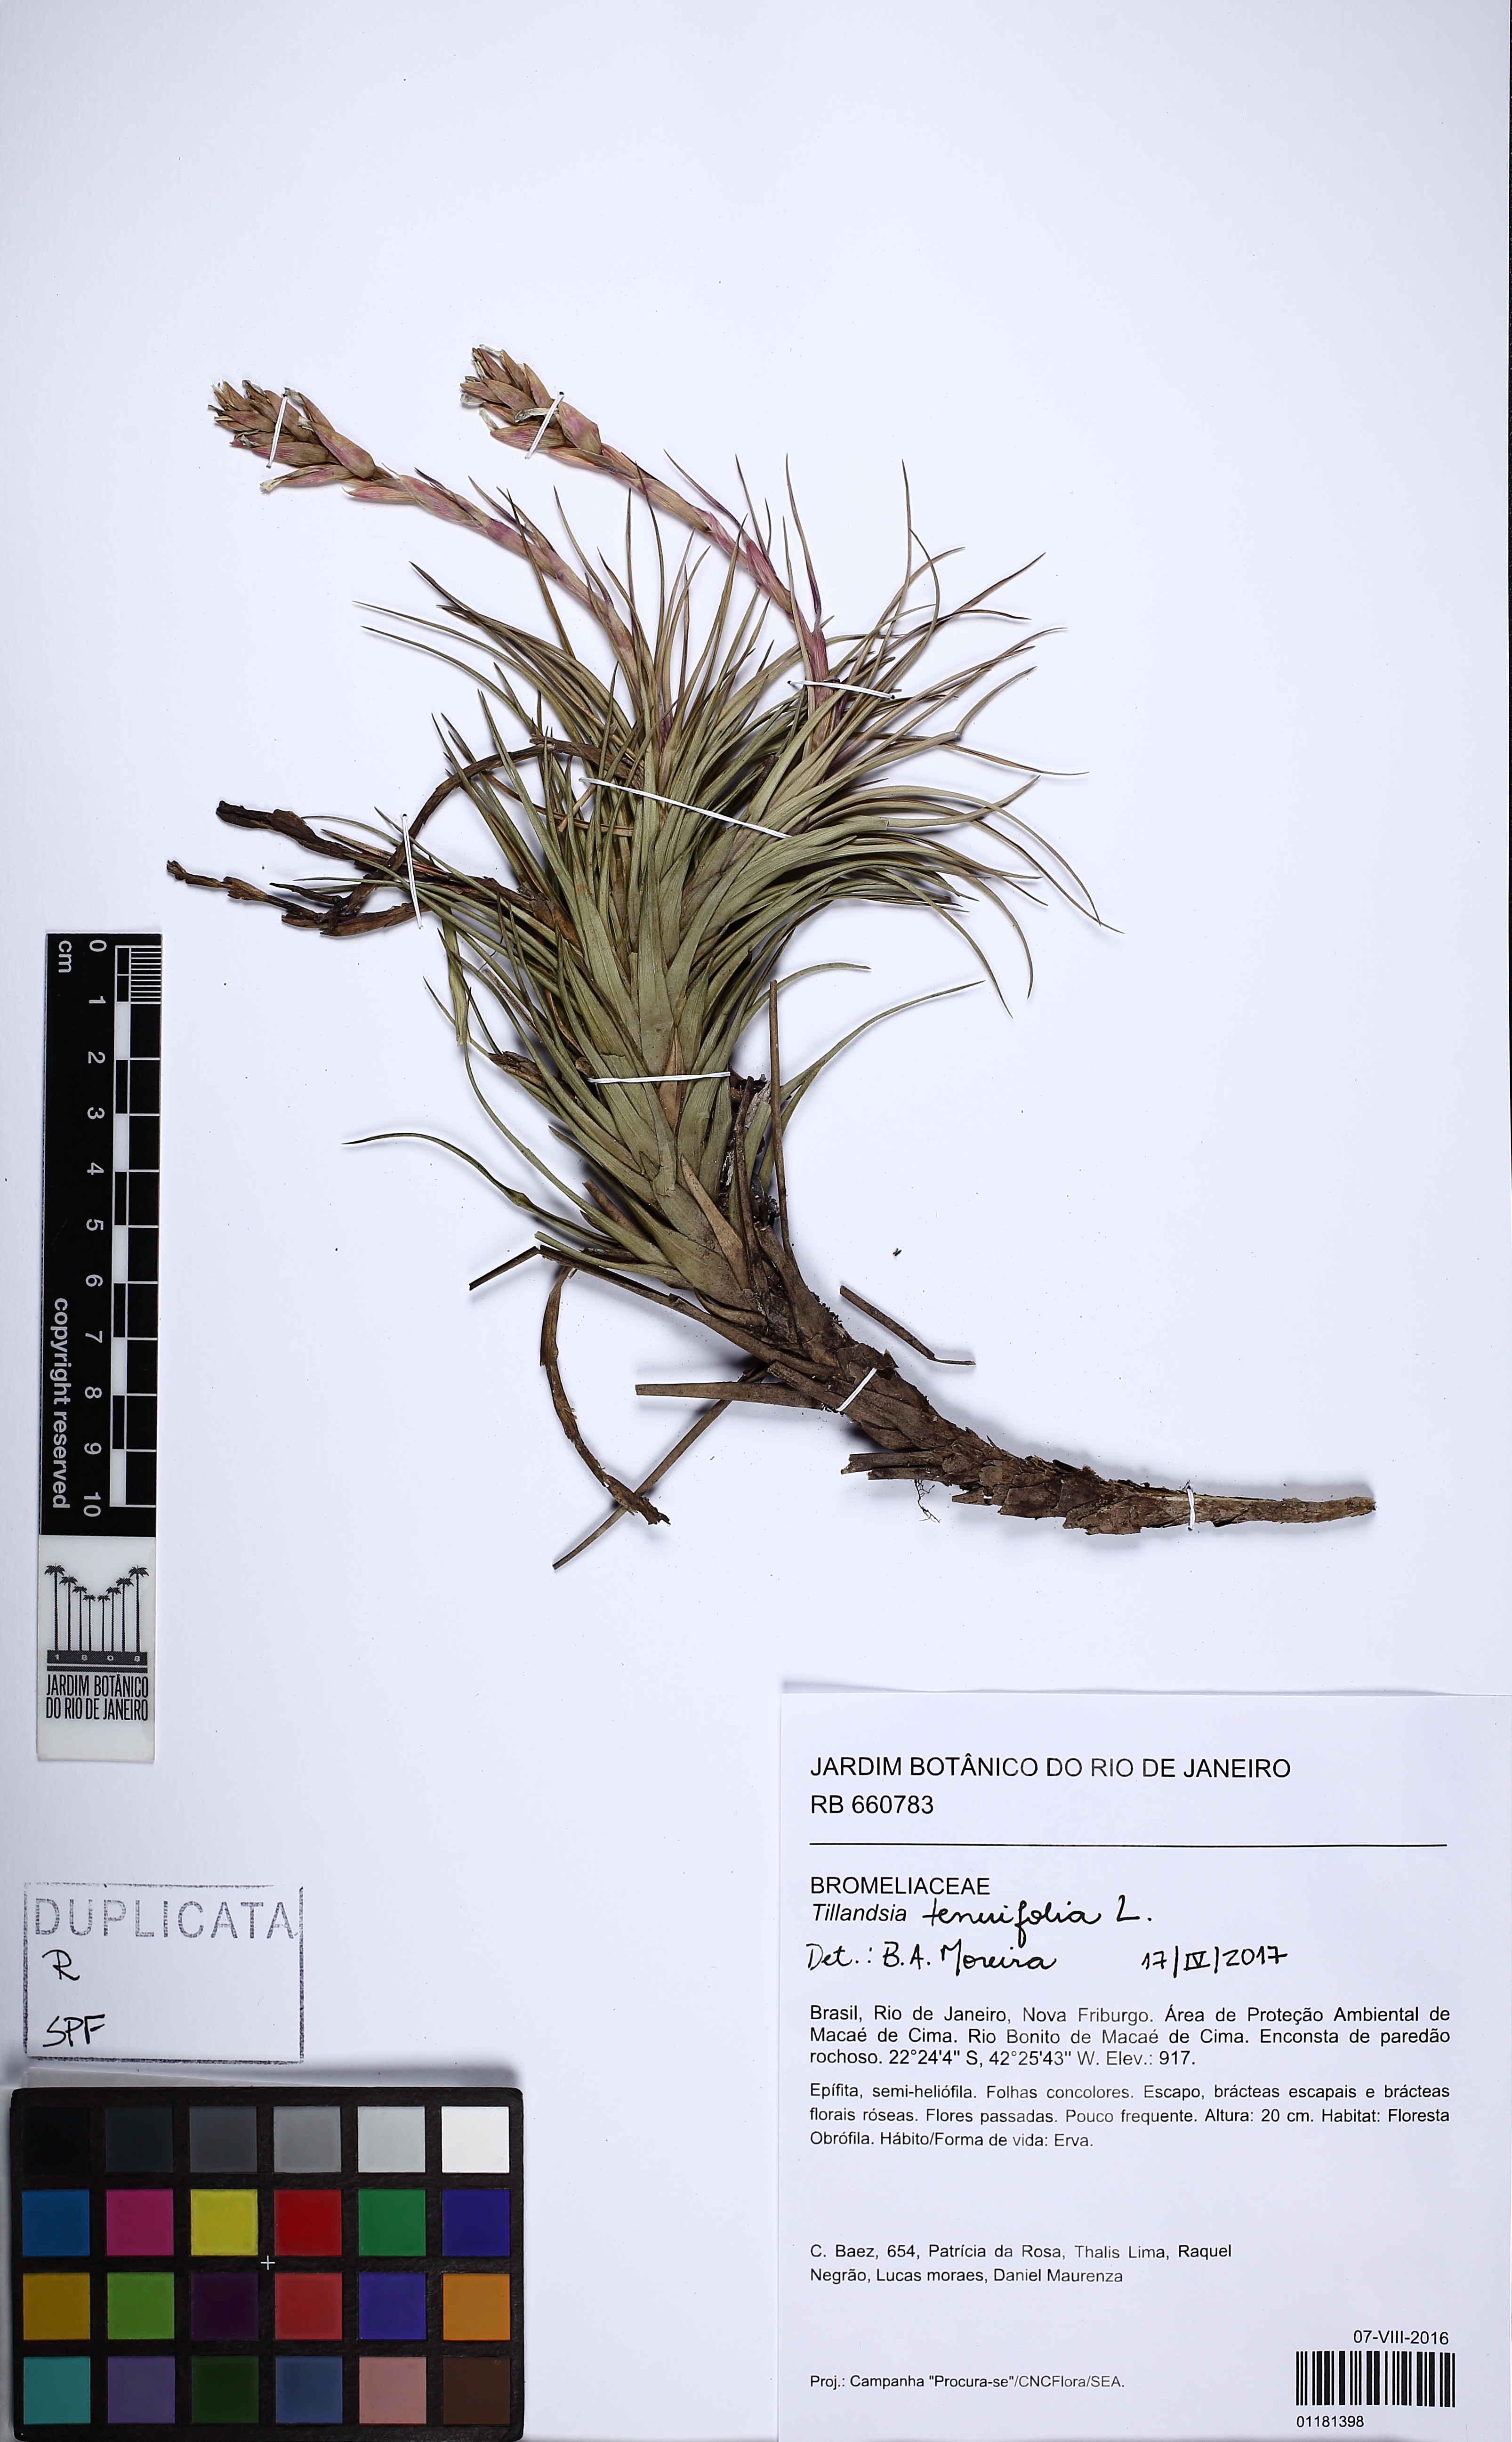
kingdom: Plantae
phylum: Tracheophyta
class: Liliopsida
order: Poales
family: Bromeliaceae
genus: Tillandsia
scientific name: Tillandsia tenuifolia
